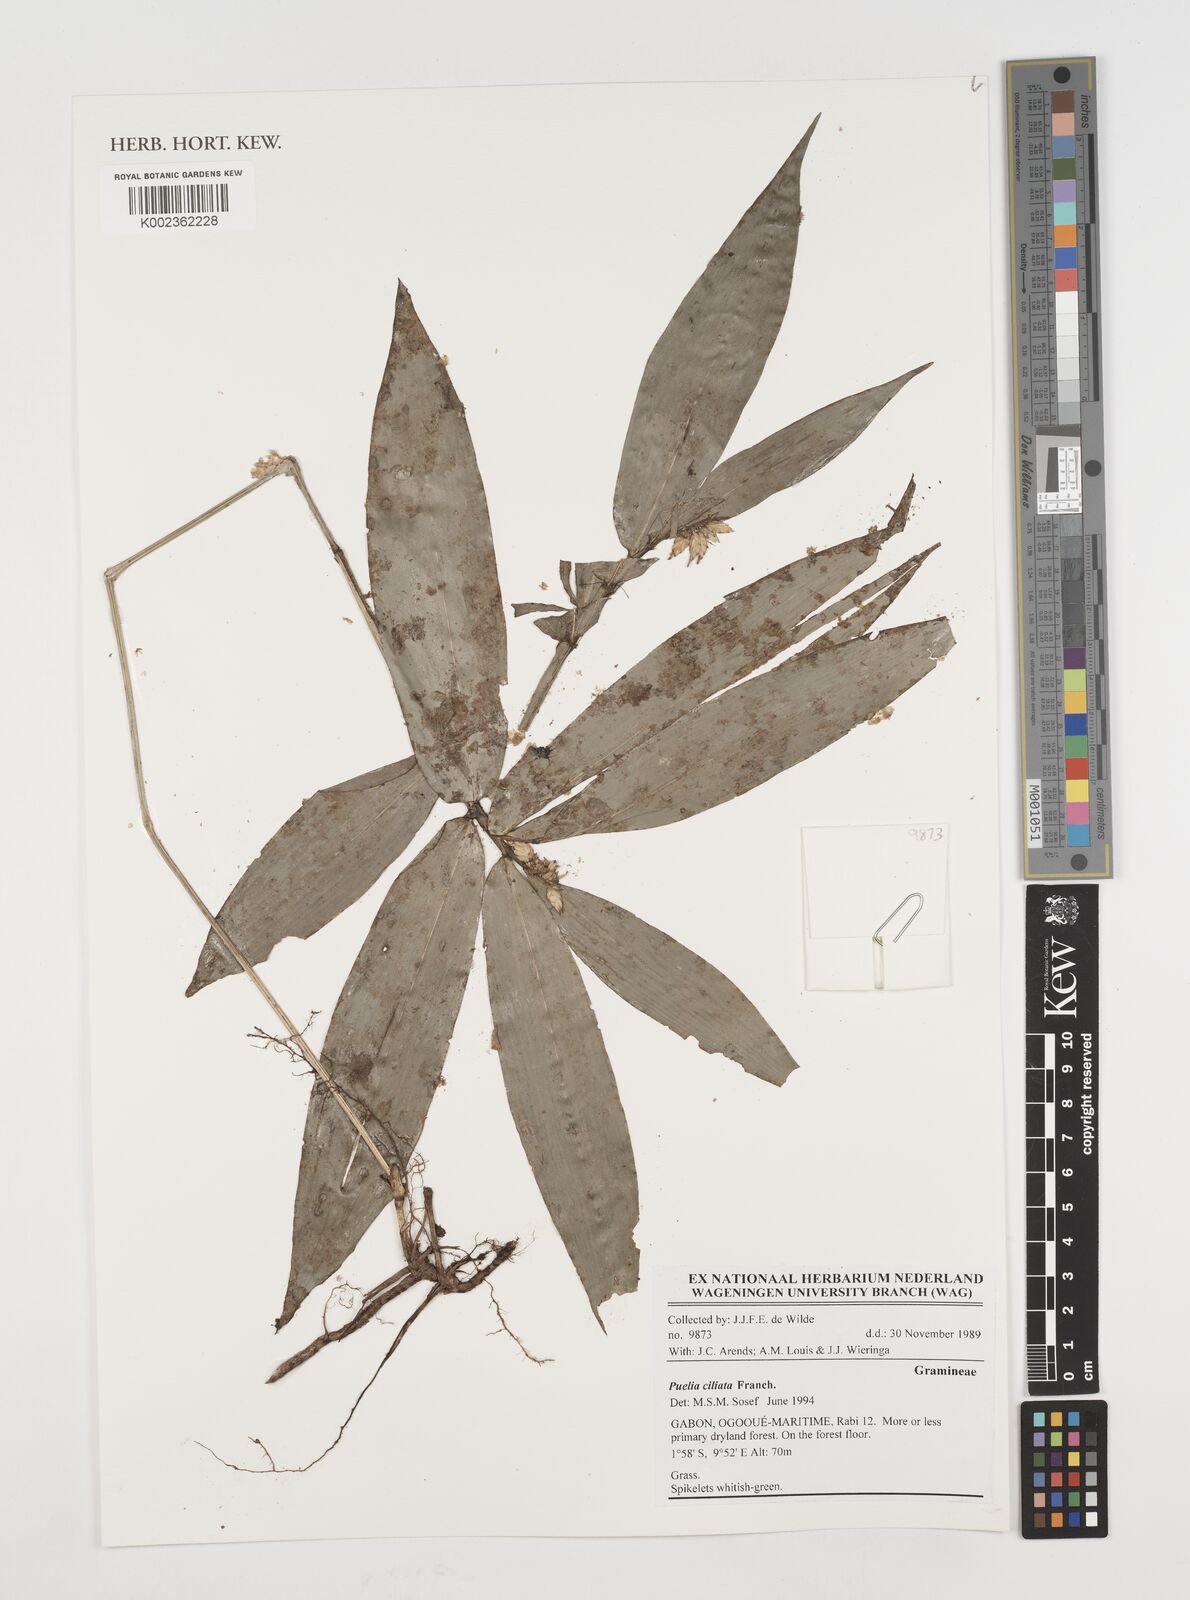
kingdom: Plantae
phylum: Tracheophyta
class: Liliopsida
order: Poales
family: Poaceae
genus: Puelia
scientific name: Puelia ciliata
